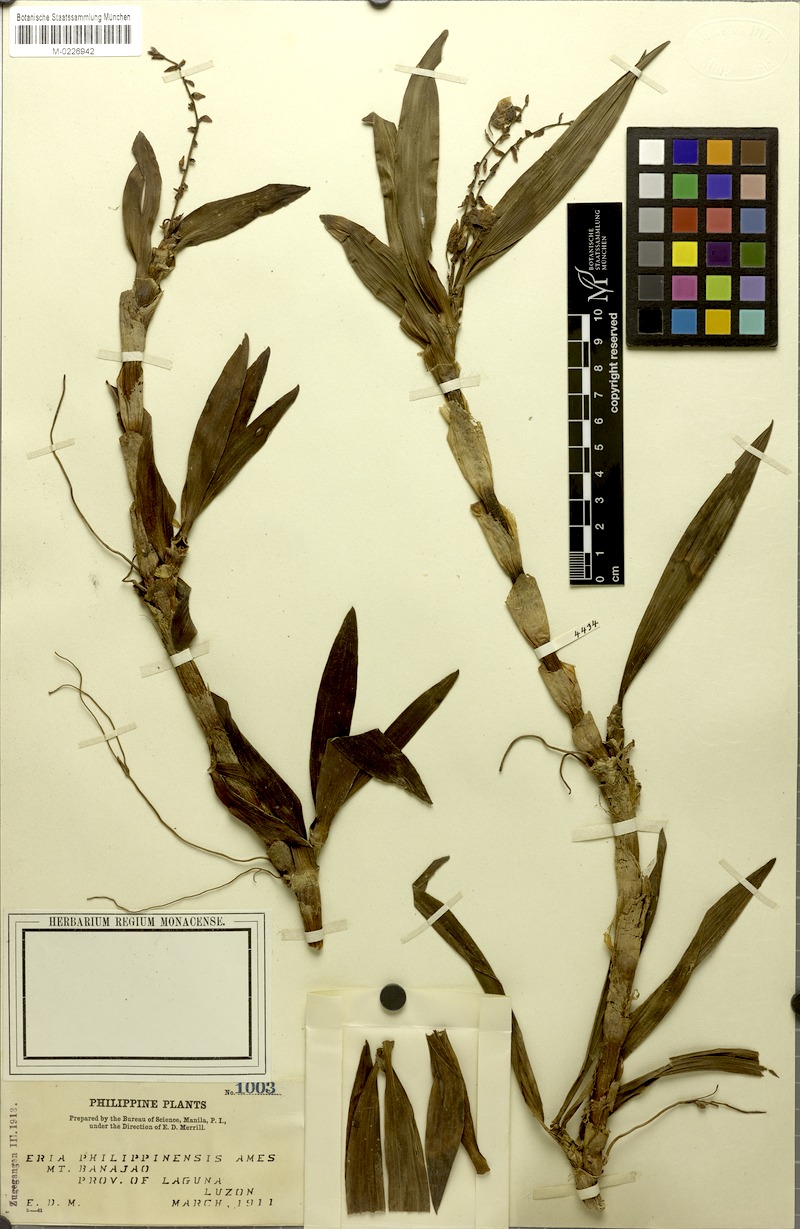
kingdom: Plantae
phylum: Tracheophyta
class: Liliopsida
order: Asparagales
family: Orchidaceae
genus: Pinalia
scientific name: Pinalia philippinensis
